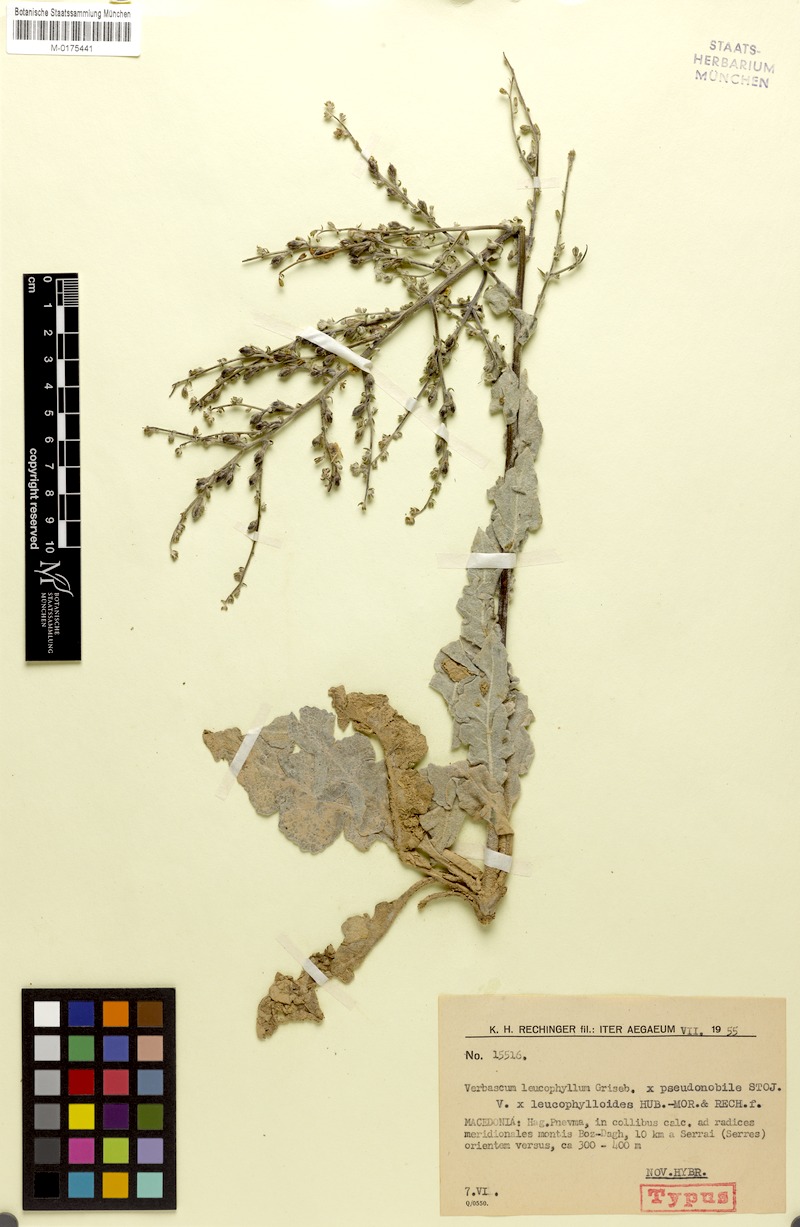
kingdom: Plantae
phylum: Tracheophyta
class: Magnoliopsida
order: Lamiales
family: Scrophulariaceae
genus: Verbascum
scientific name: Verbascum leucophylloides
